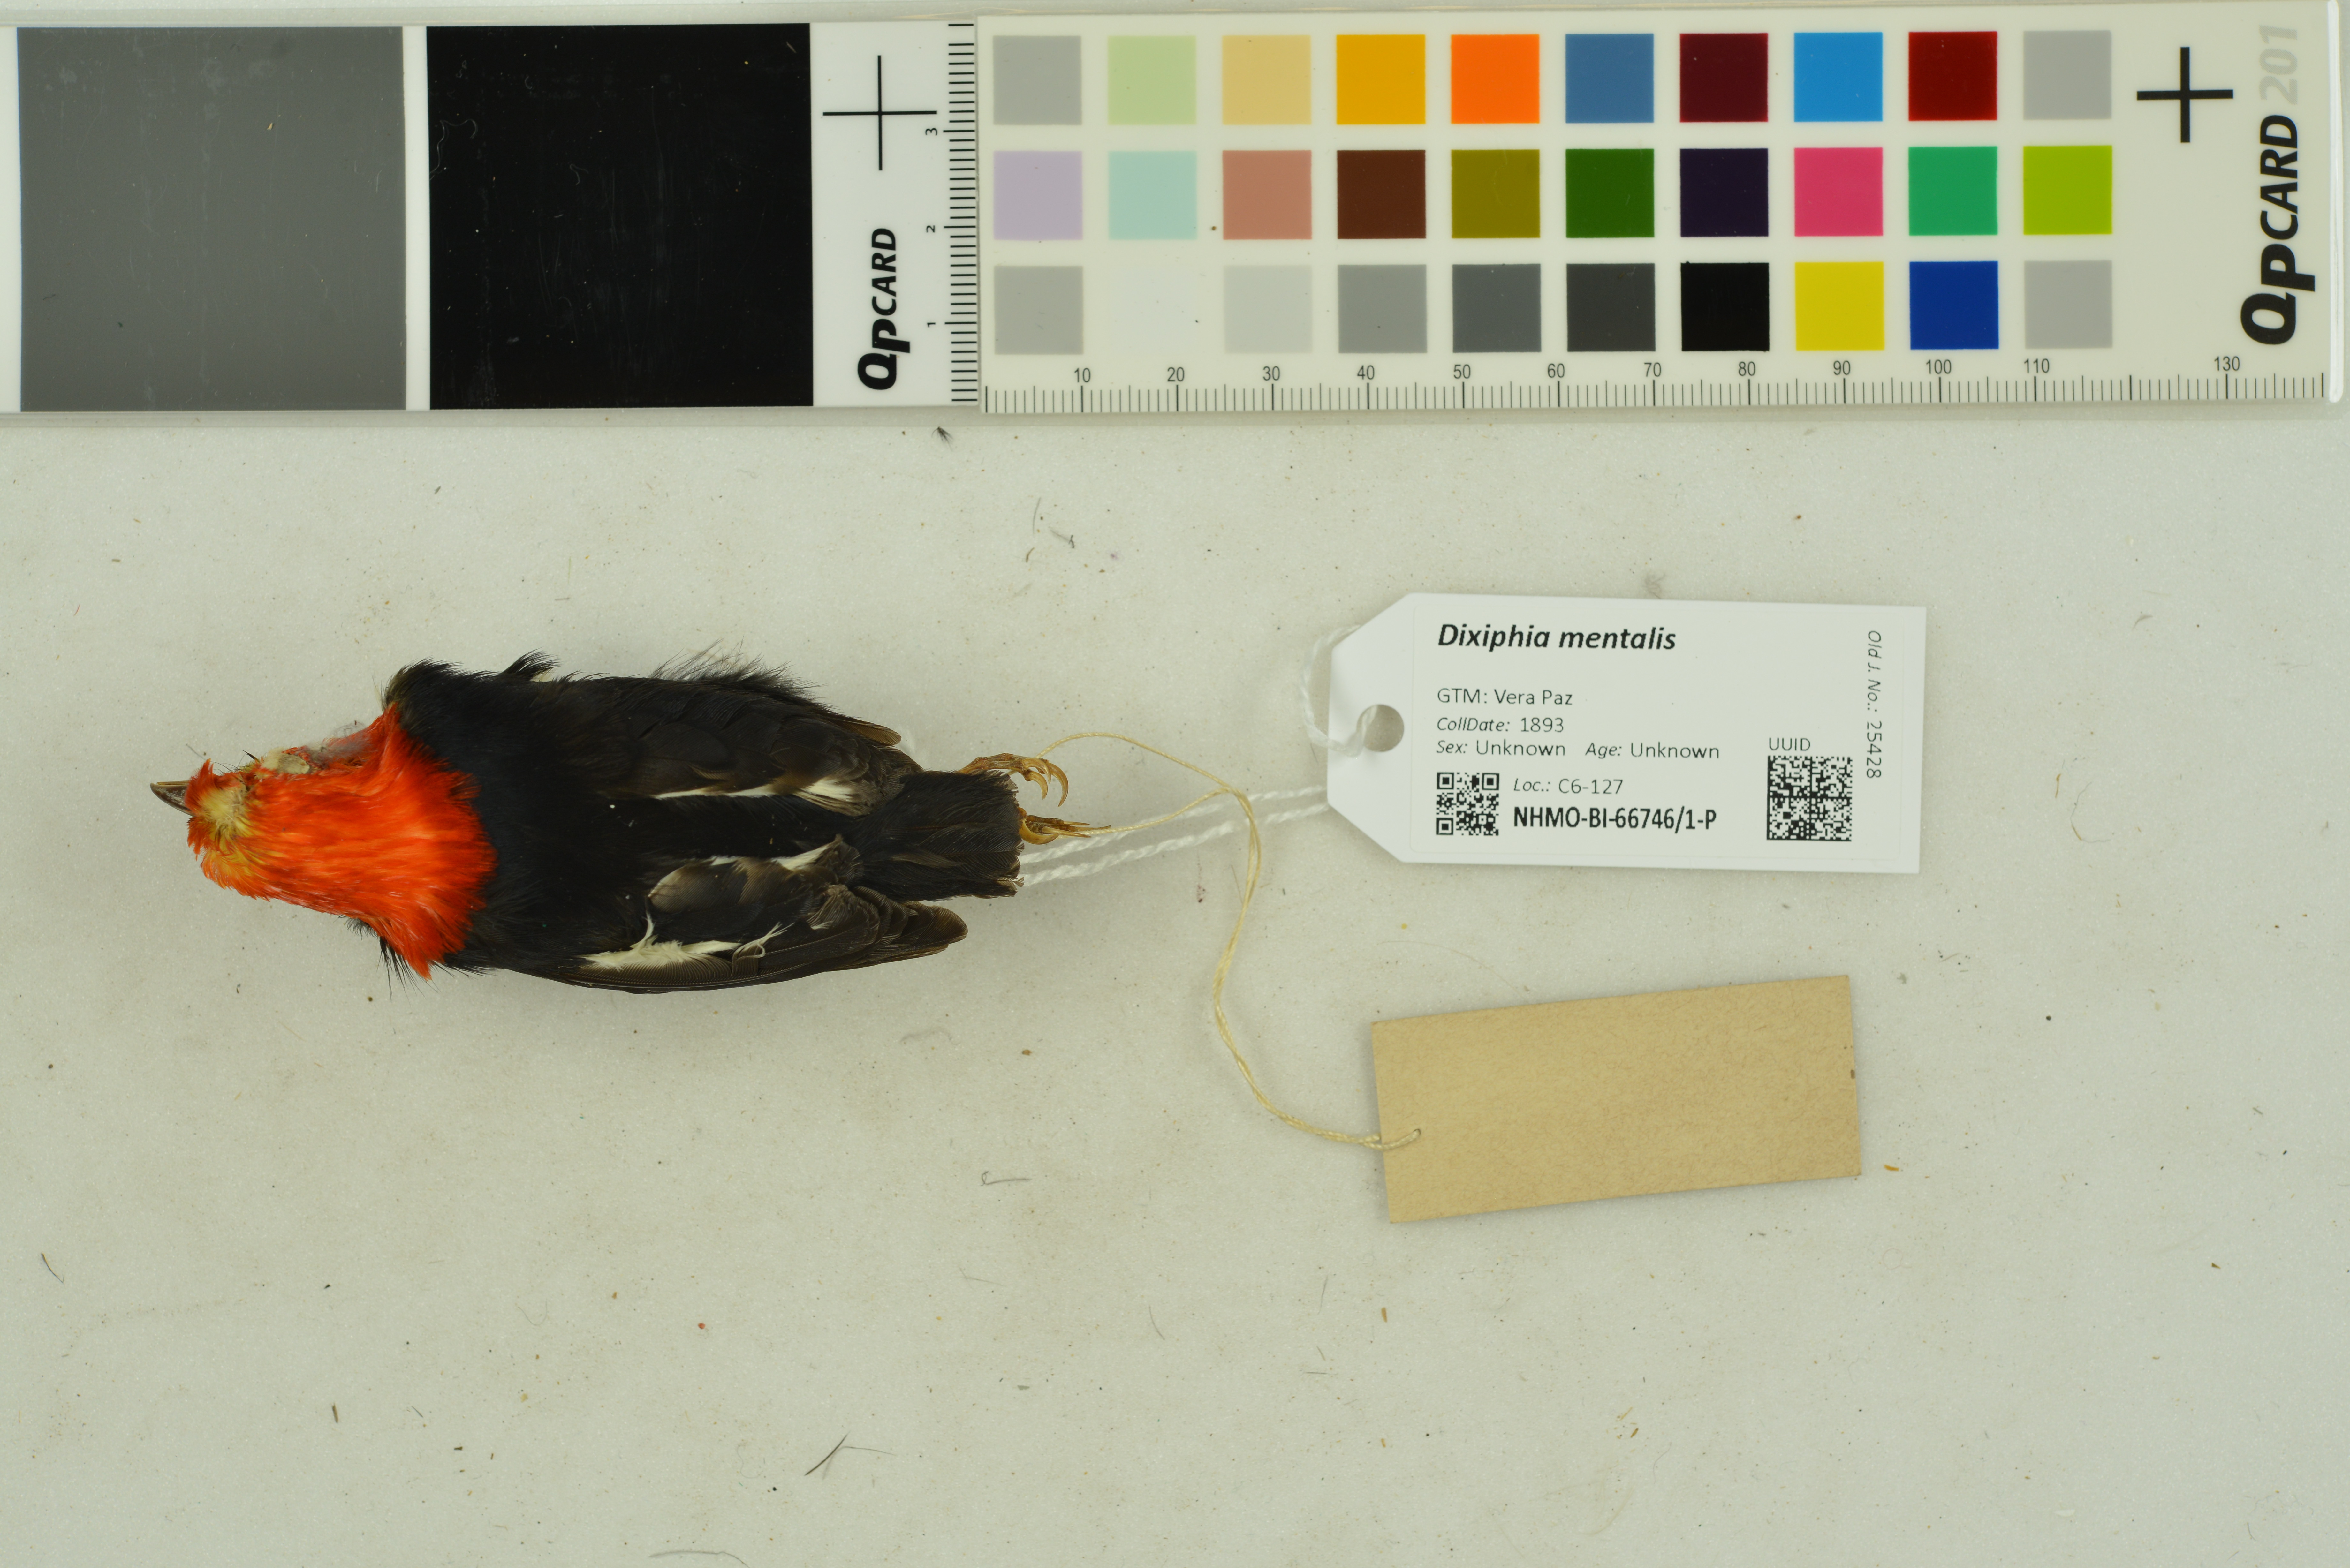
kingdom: Animalia
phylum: Chordata
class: Aves
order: Passeriformes
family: Pipridae
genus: Pipra
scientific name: Pipra mentalis
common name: Red-capped manakin
